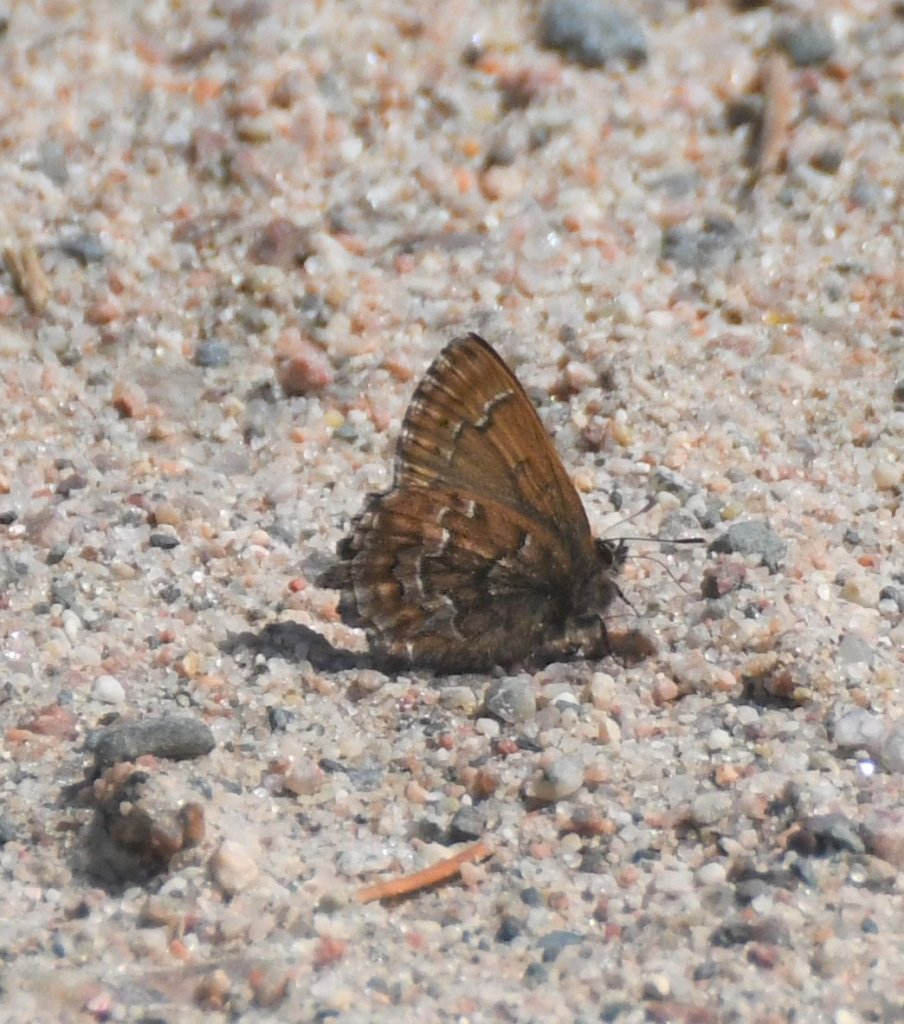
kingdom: Animalia
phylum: Arthropoda
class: Insecta
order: Lepidoptera
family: Lycaenidae
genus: Incisalia
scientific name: Incisalia niphon
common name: Eastern Pine Elfin
